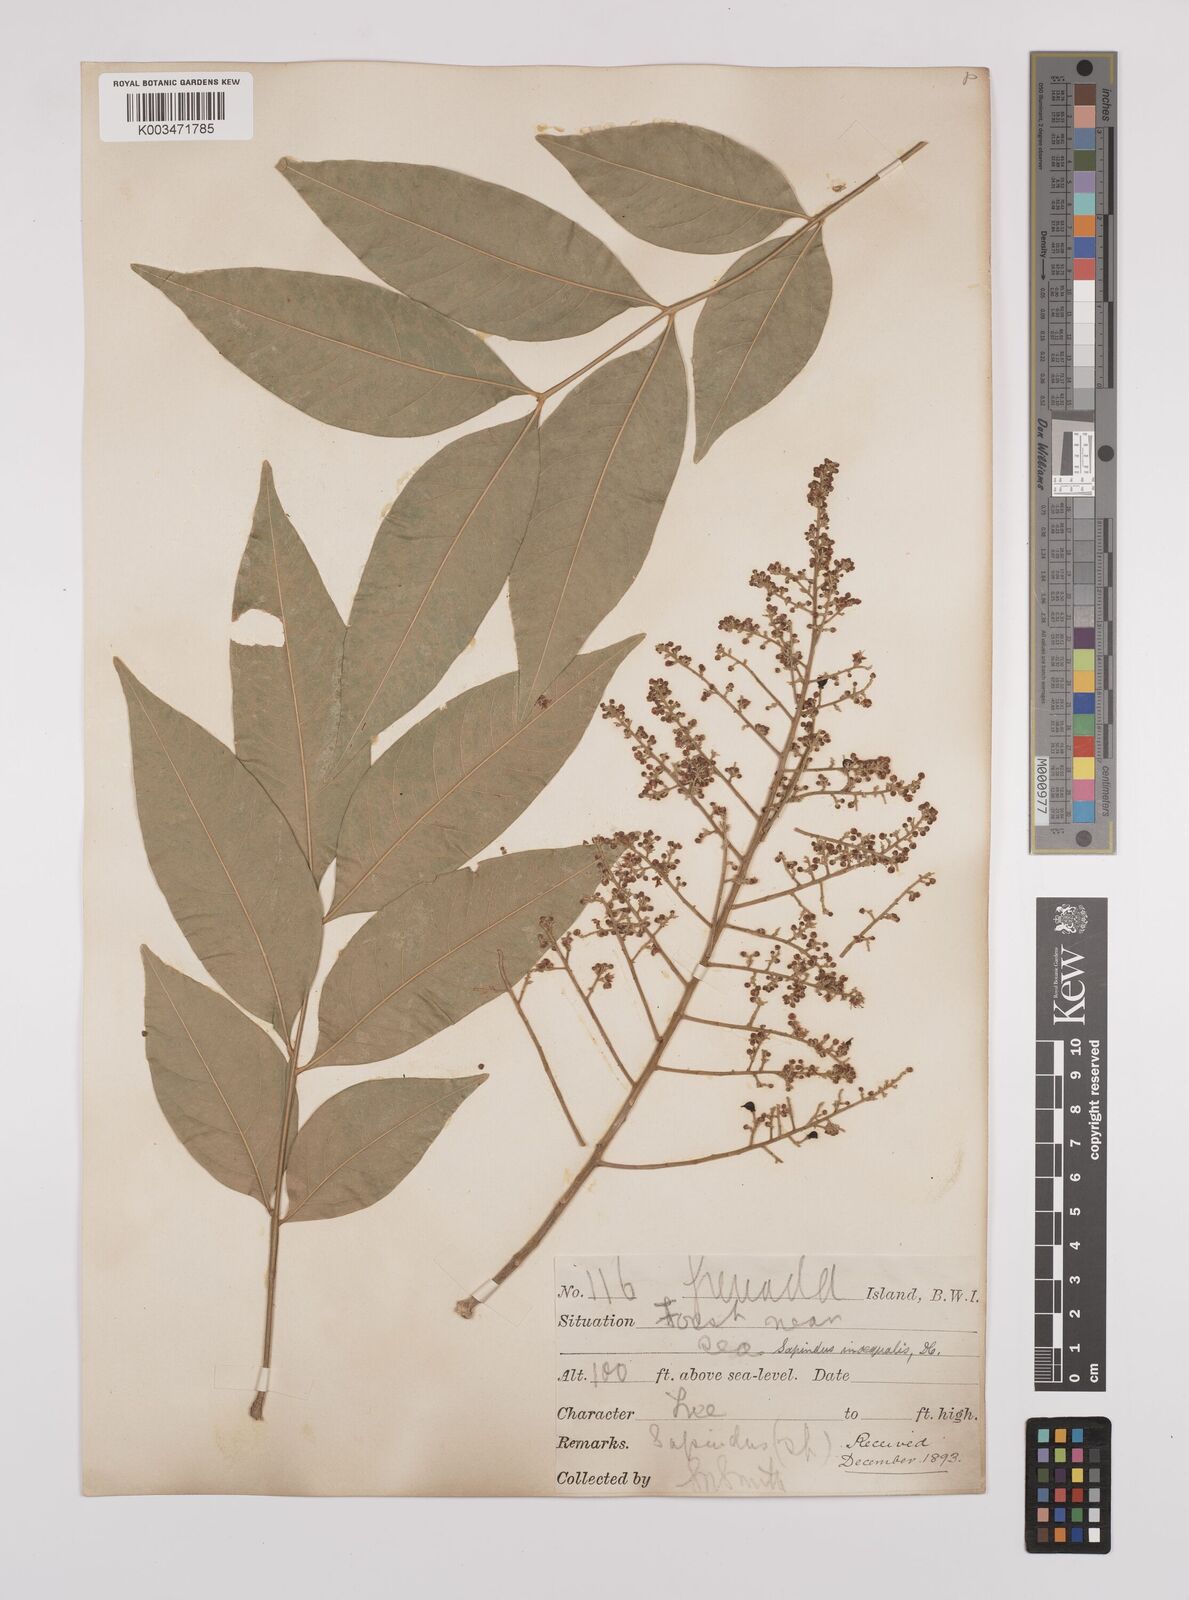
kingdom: Plantae
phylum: Tracheophyta
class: Magnoliopsida
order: Sapindales
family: Sapindaceae
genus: Sapindus
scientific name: Sapindus saponaria
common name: Wingleaf soapberry
